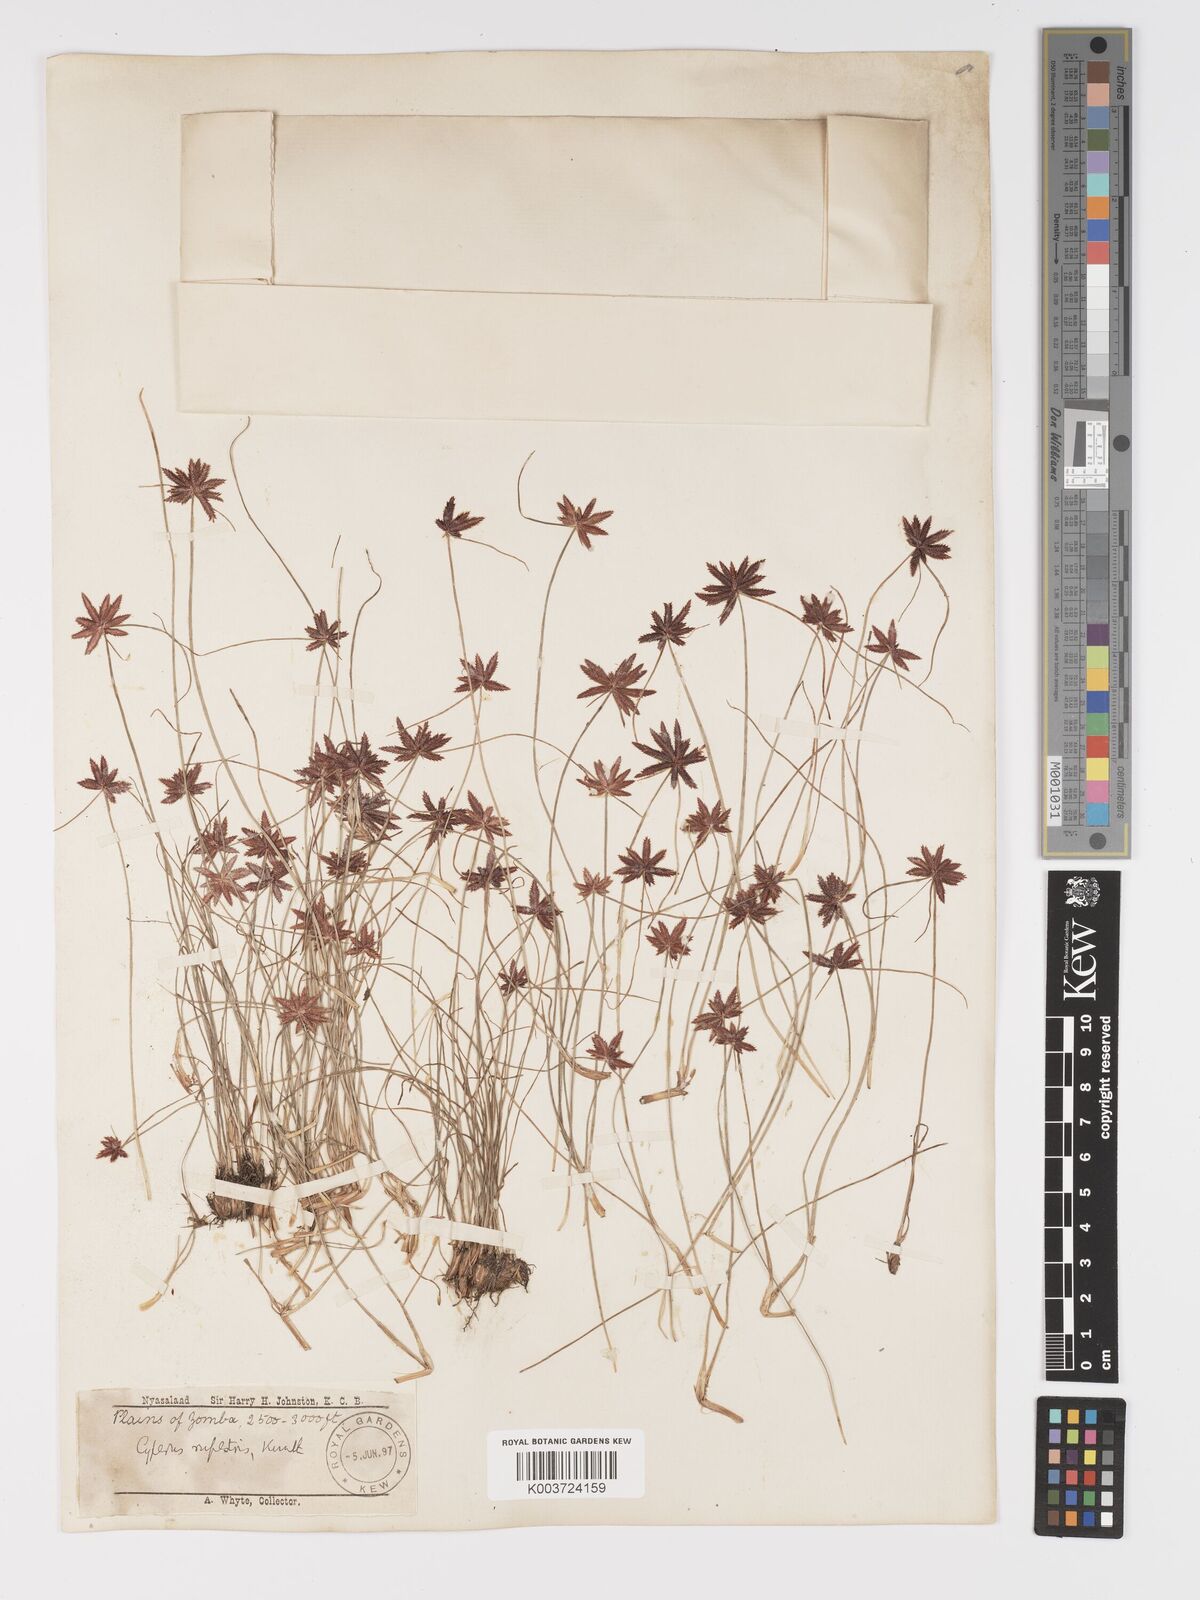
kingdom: Plantae
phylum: Tracheophyta
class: Liliopsida
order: Poales
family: Cyperaceae
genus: Cyperus
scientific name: Cyperus rupestris
